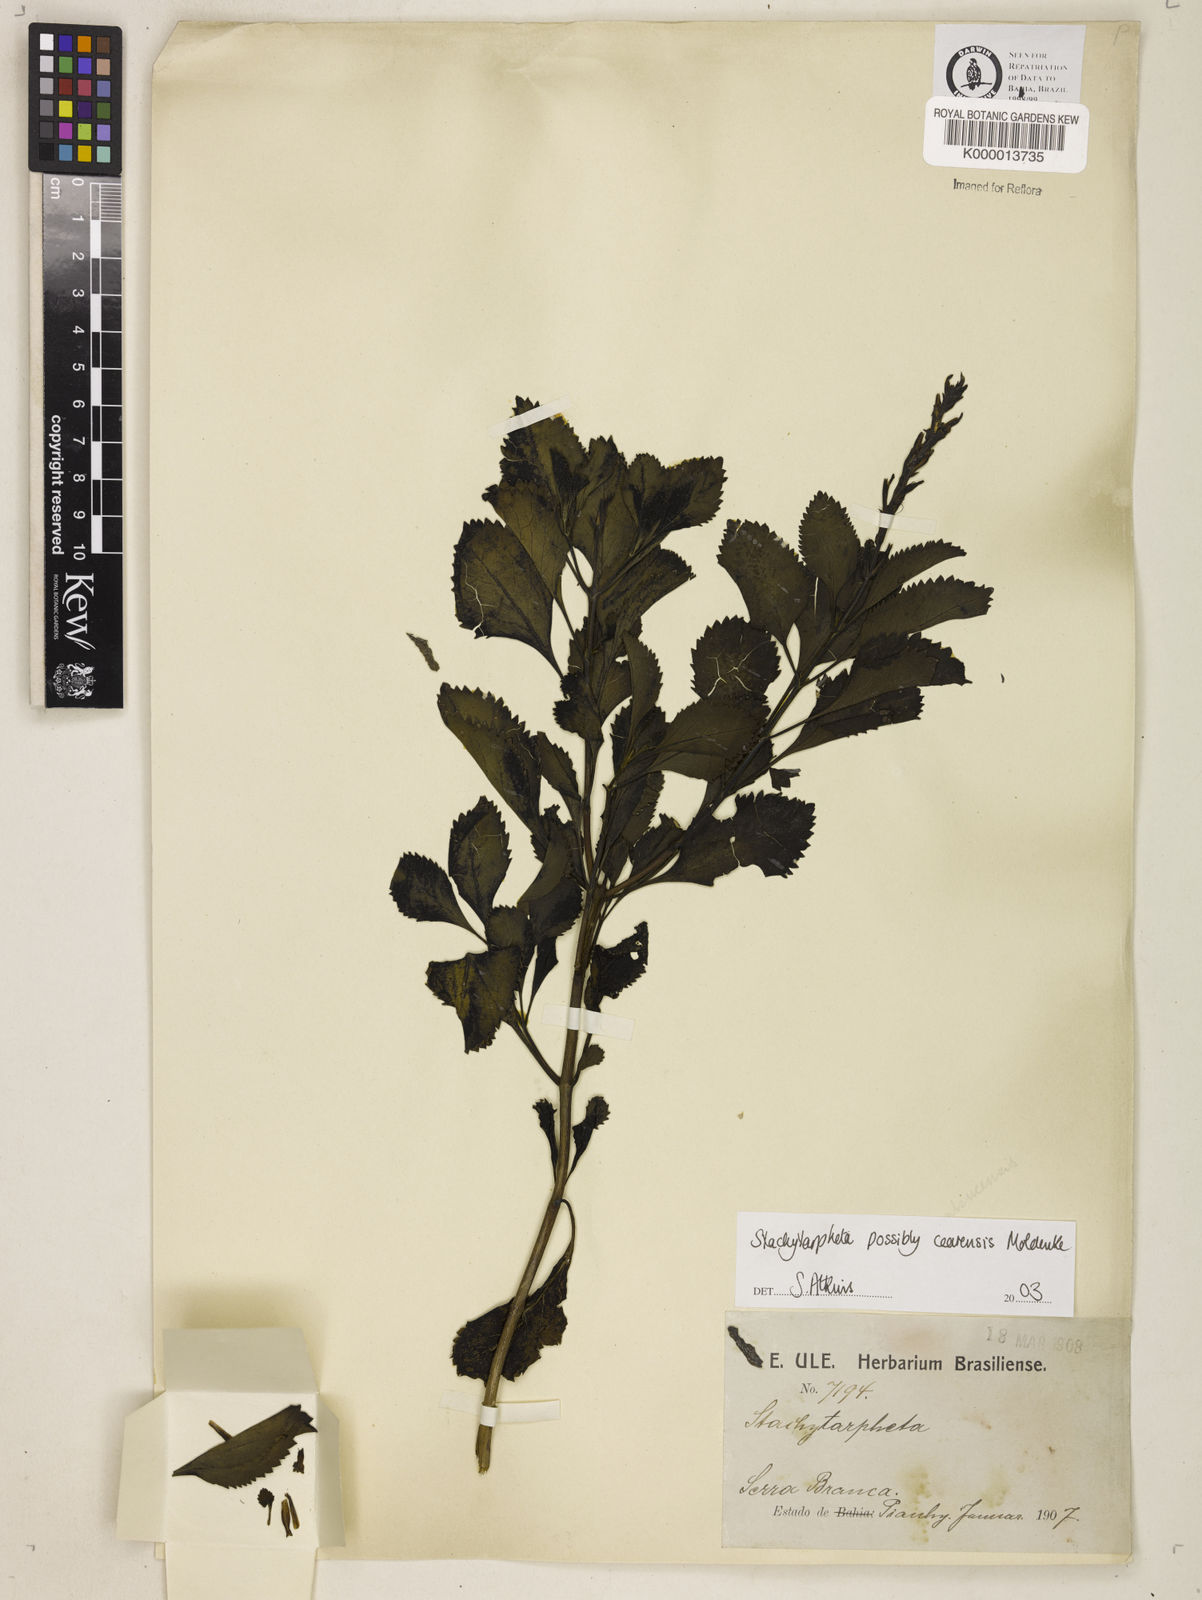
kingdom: Plantae
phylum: Tracheophyta
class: Magnoliopsida
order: Lamiales
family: Verbenaceae
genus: Stachytarpheta
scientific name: Stachytarpheta
